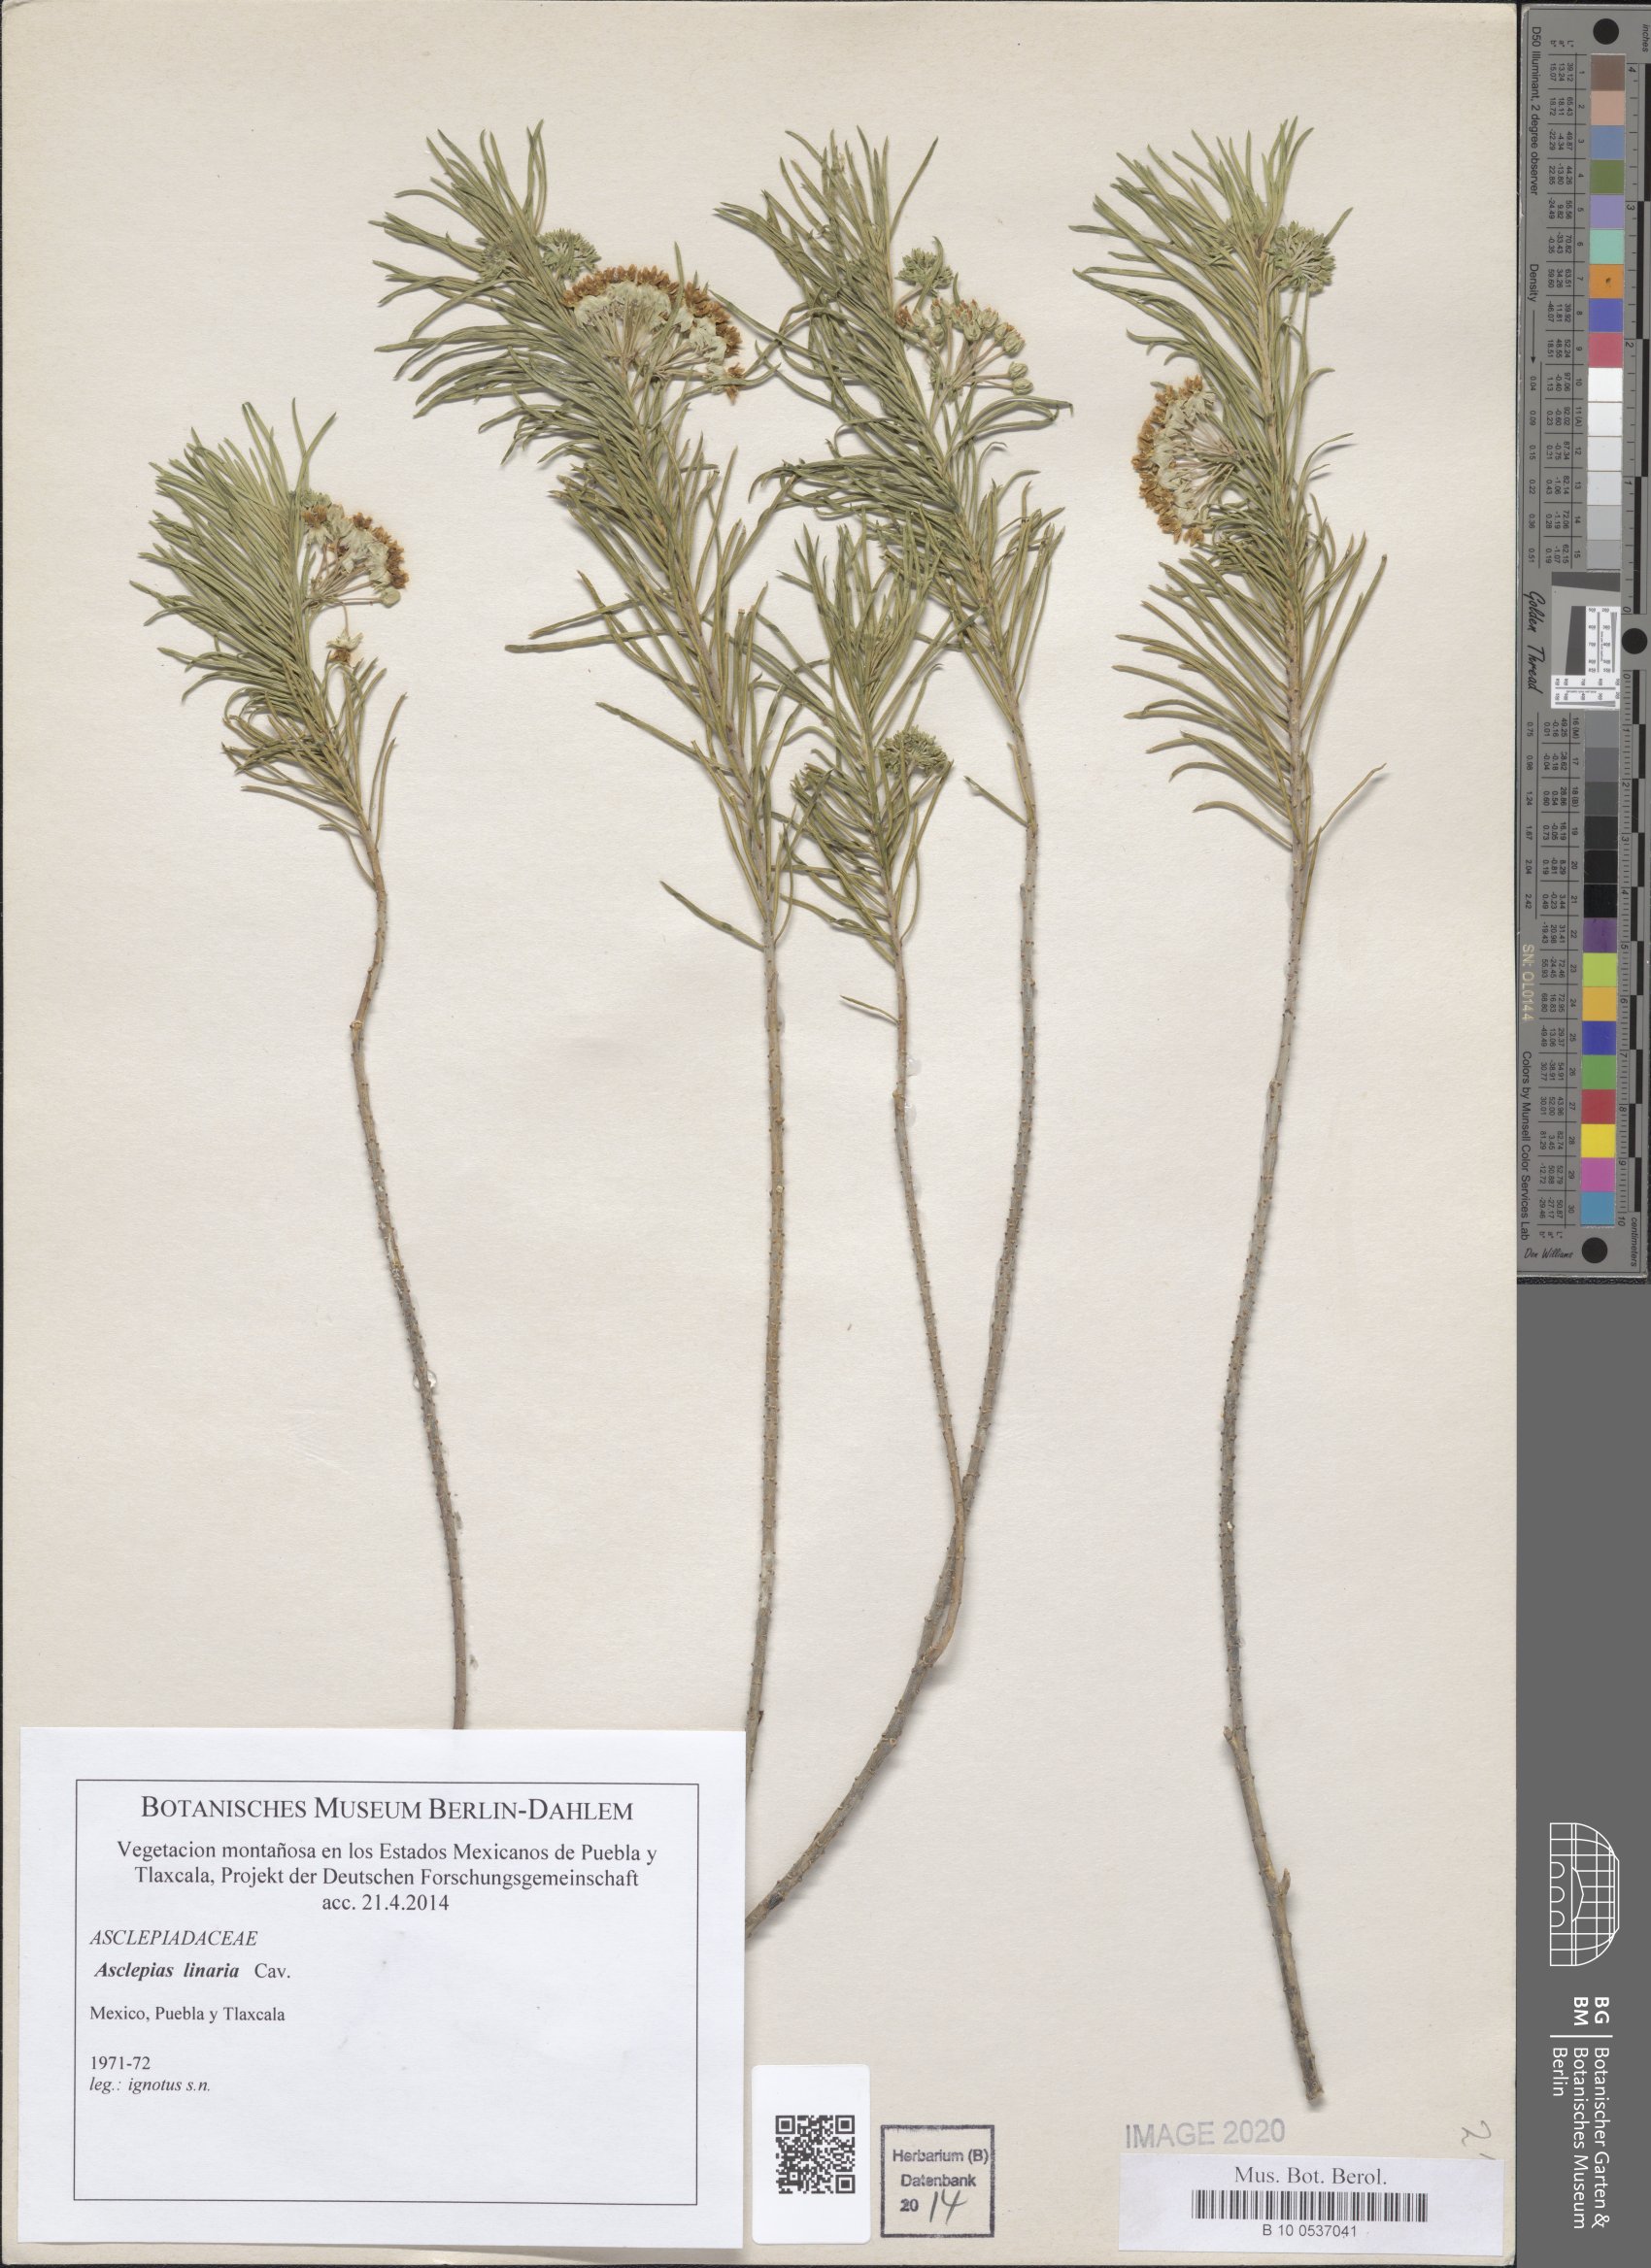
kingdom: Plantae
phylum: Tracheophyta
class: Magnoliopsida
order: Gentianales
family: Apocynaceae
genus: Asclepias
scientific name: Asclepias linaria
